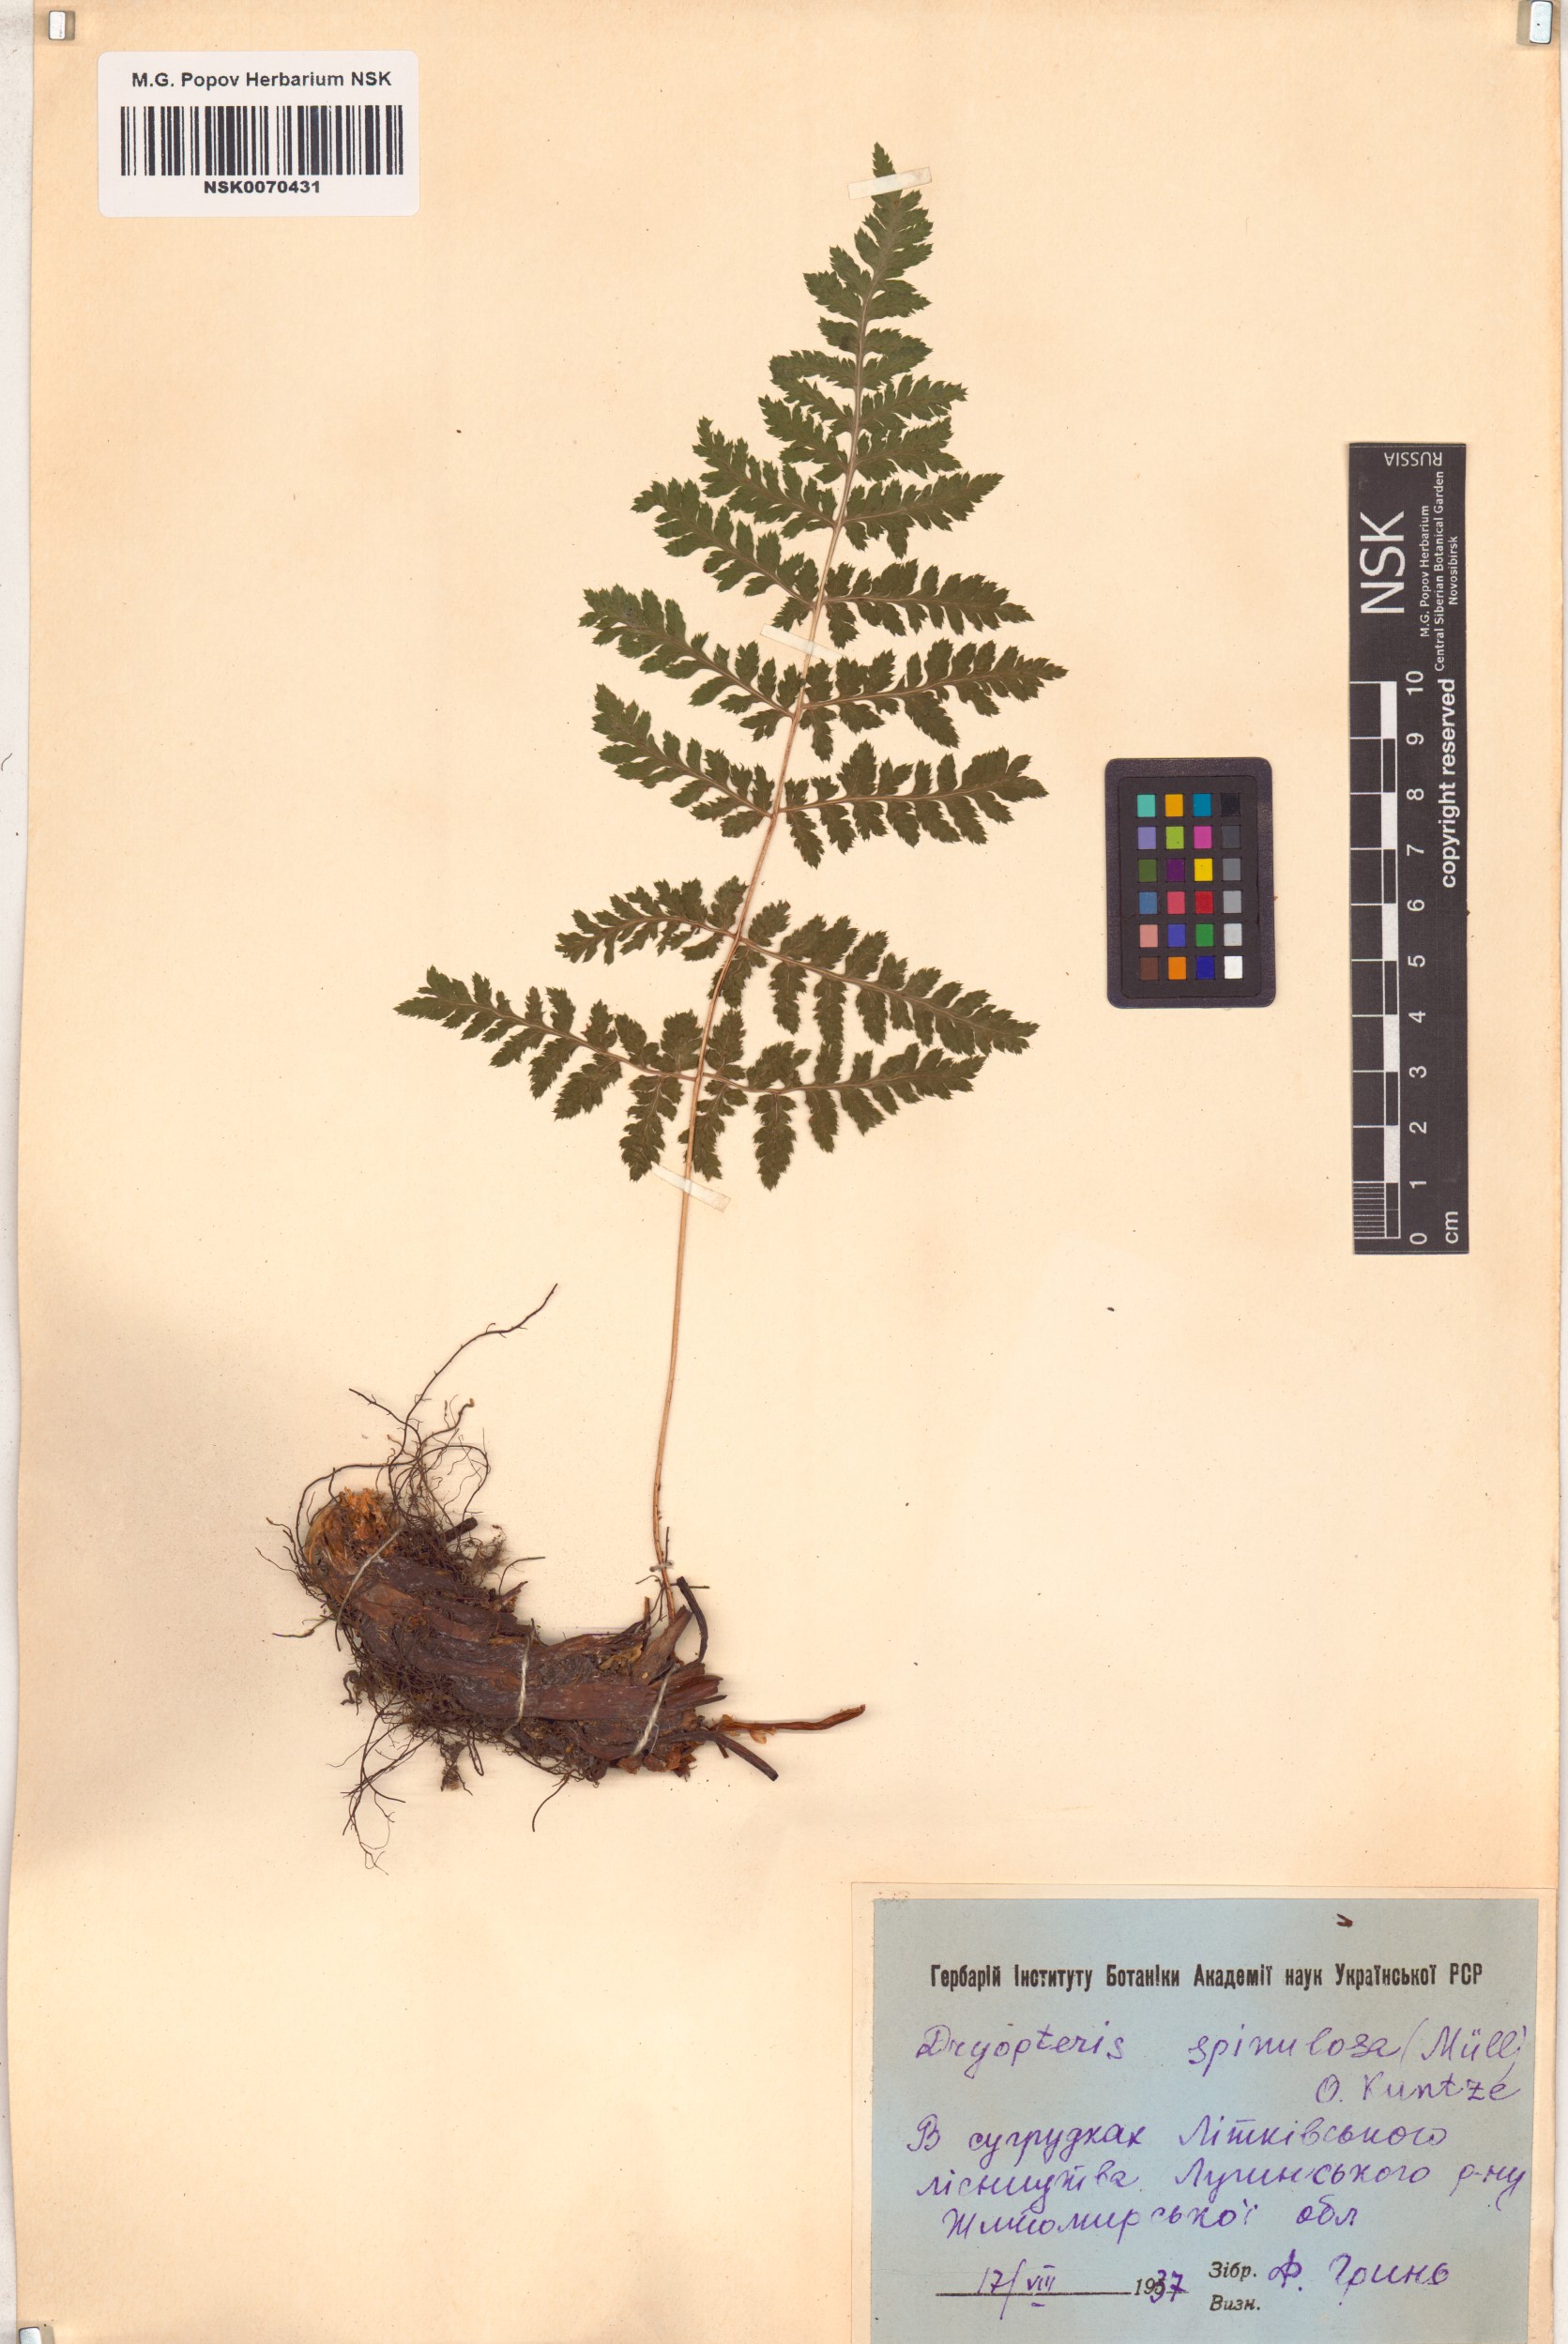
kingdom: Plantae
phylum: Tracheophyta
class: Polypodiopsida
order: Polypodiales
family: Dryopteridaceae
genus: Dryopteris
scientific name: Dryopteris carthusiana
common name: Narrow buckler-fern
